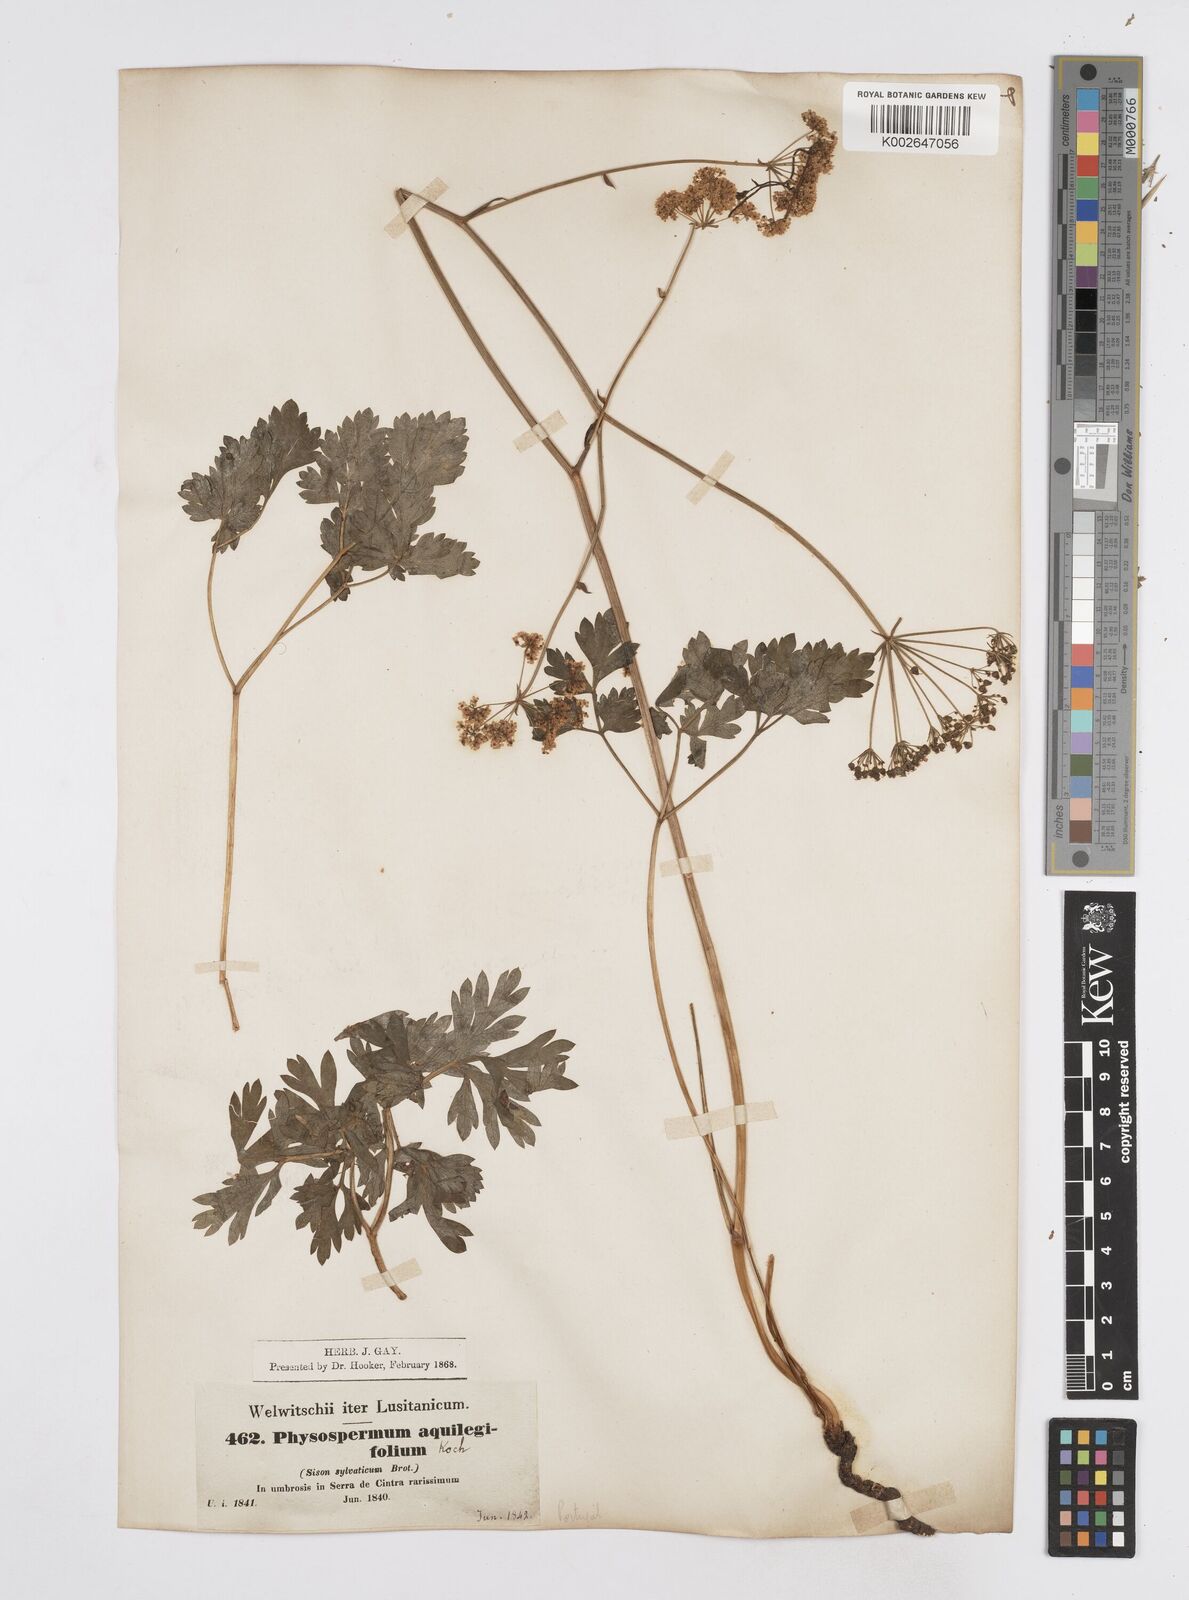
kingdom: Plantae
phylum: Tracheophyta
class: Magnoliopsida
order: Apiales
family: Apiaceae
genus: Physospermum
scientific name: Physospermum cornubiense
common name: Bladderseed
